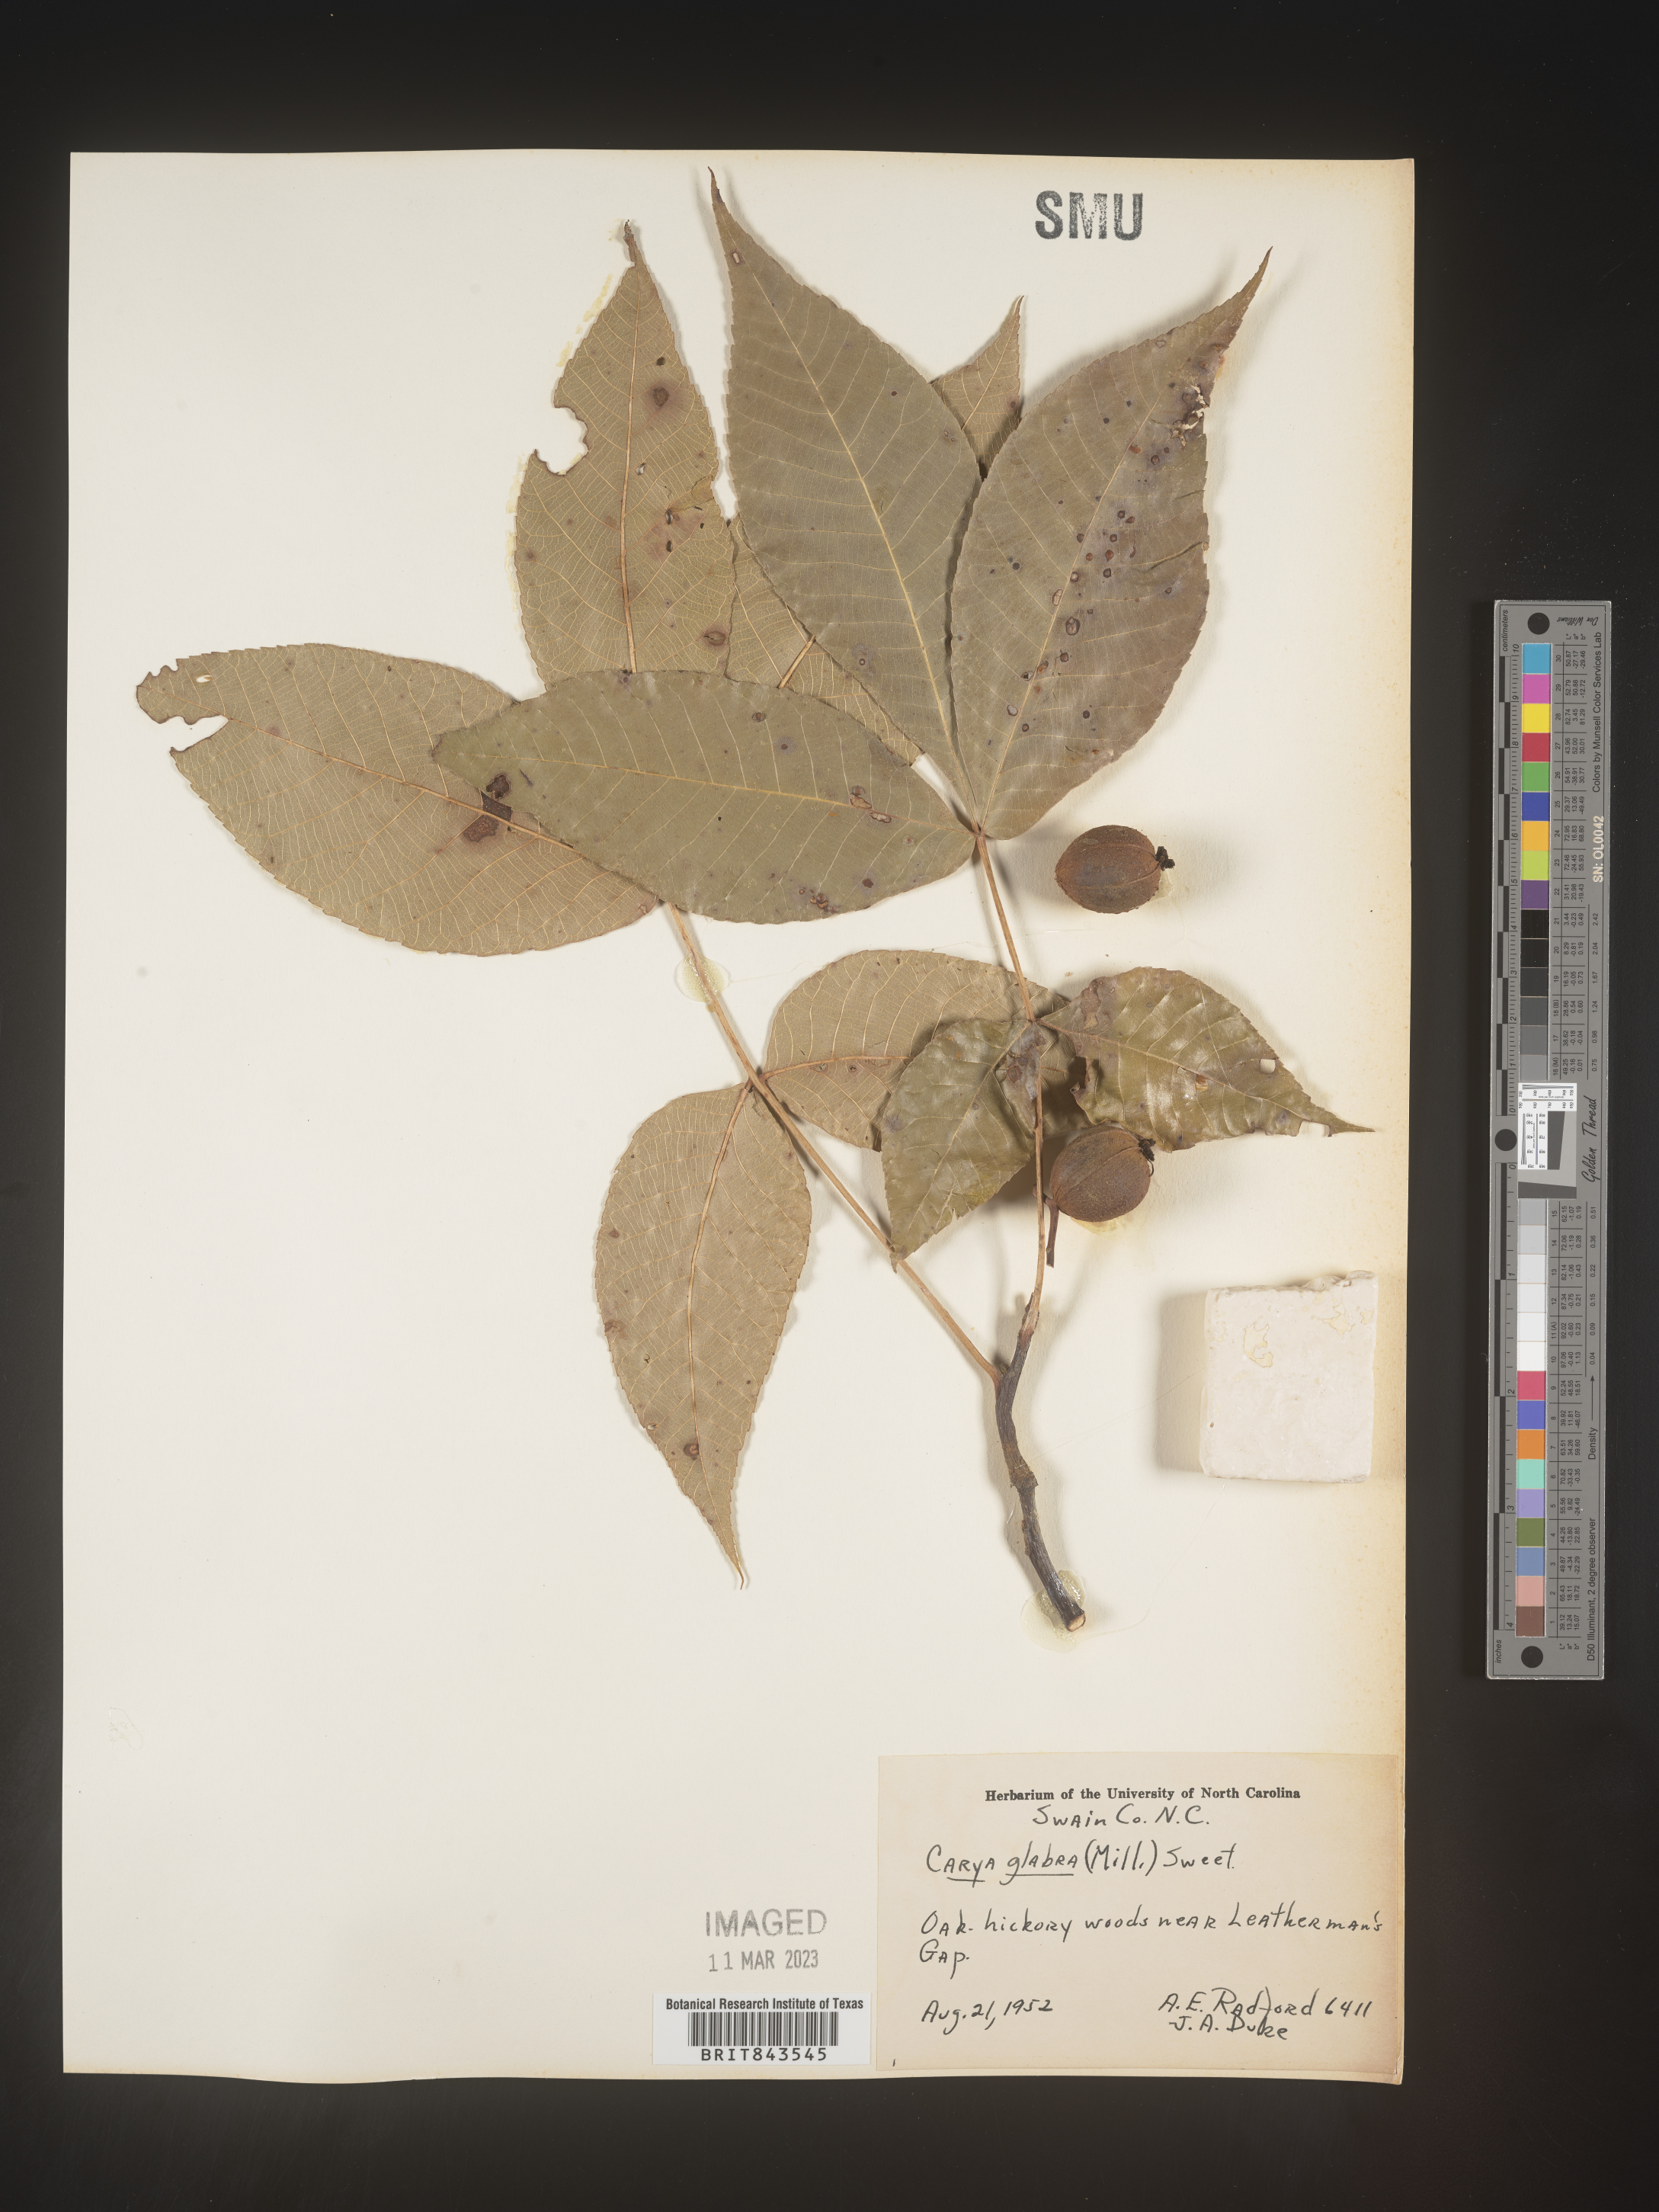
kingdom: Plantae
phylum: Tracheophyta
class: Magnoliopsida
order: Fagales
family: Juglandaceae
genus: Carya
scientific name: Carya glabra
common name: Pignut hickory
